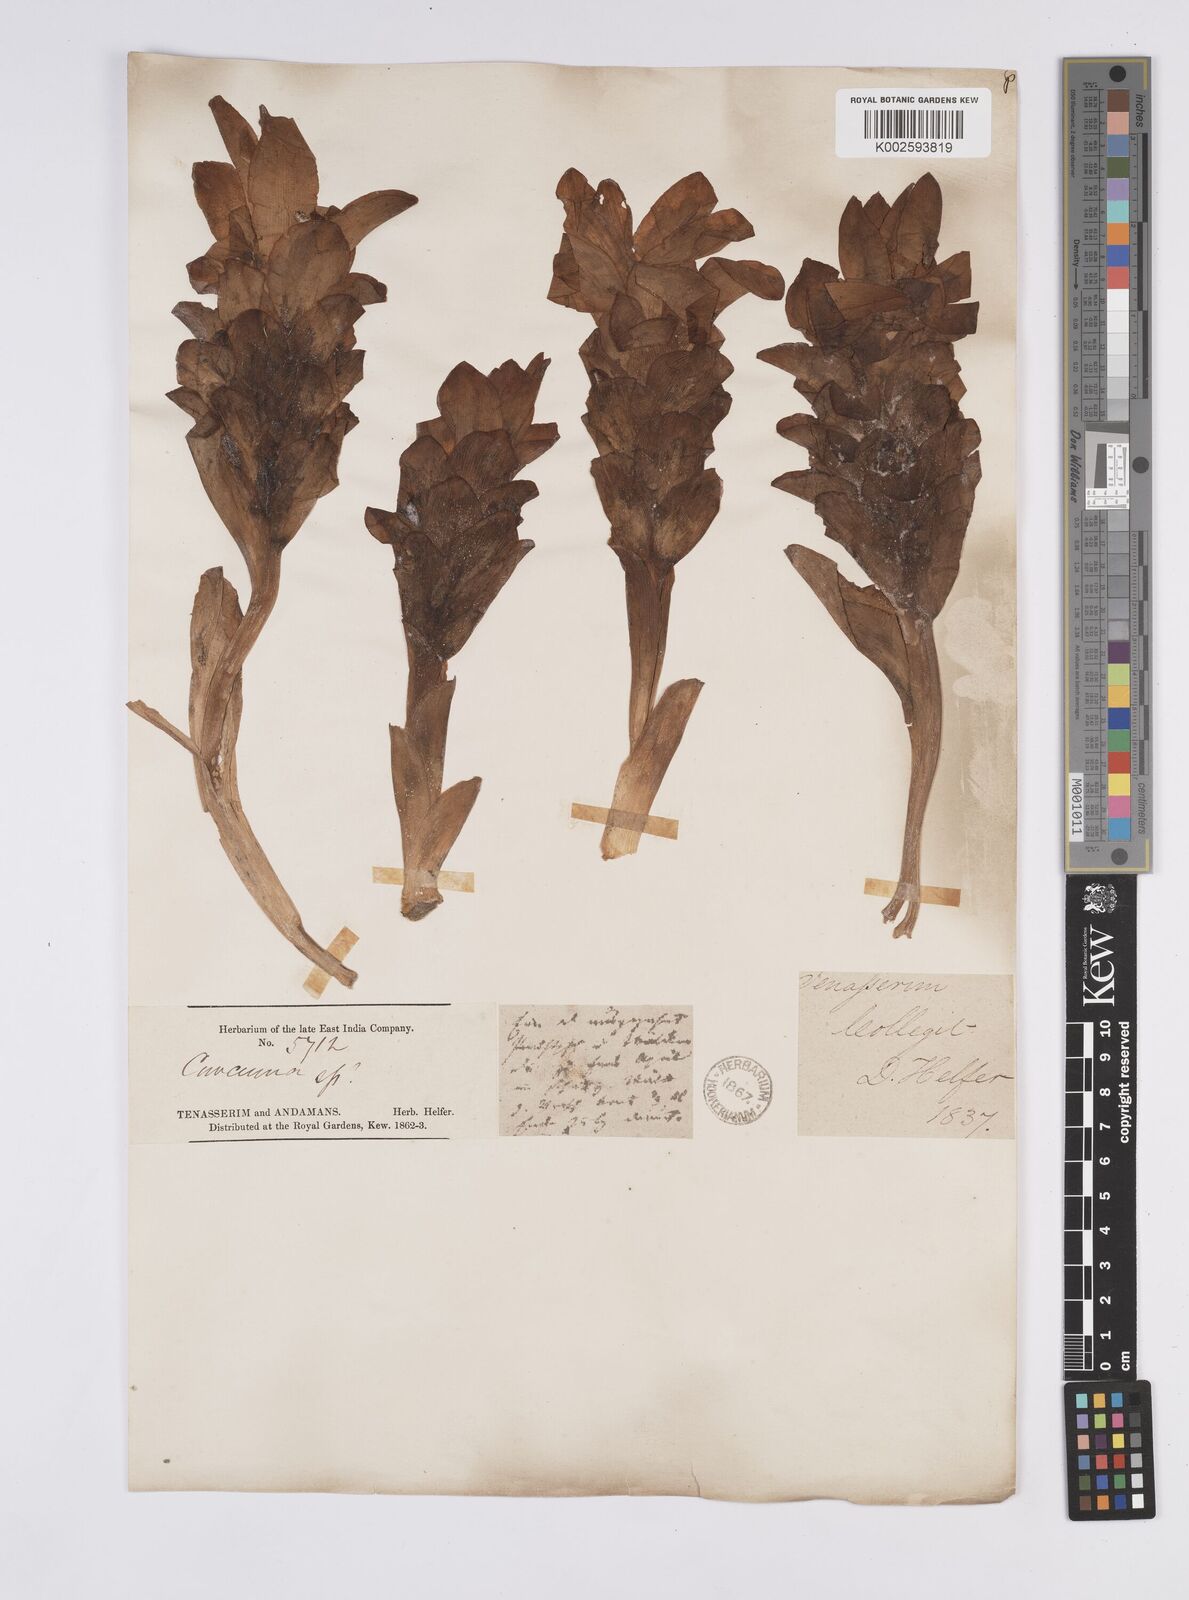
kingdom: Plantae
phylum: Tracheophyta
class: Liliopsida
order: Zingiberales
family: Zingiberaceae
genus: Curcuma
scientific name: Curcuma leucorrhiza
